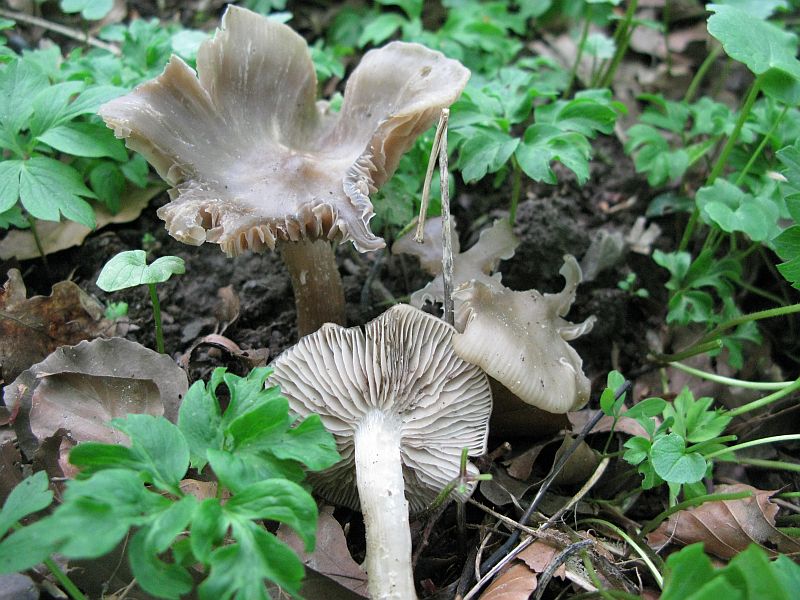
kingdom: Fungi
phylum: Basidiomycota
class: Agaricomycetes
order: Agaricales
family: Entolomataceae
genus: Entoloma
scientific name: Entoloma clypeatum
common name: flammet rødblad
